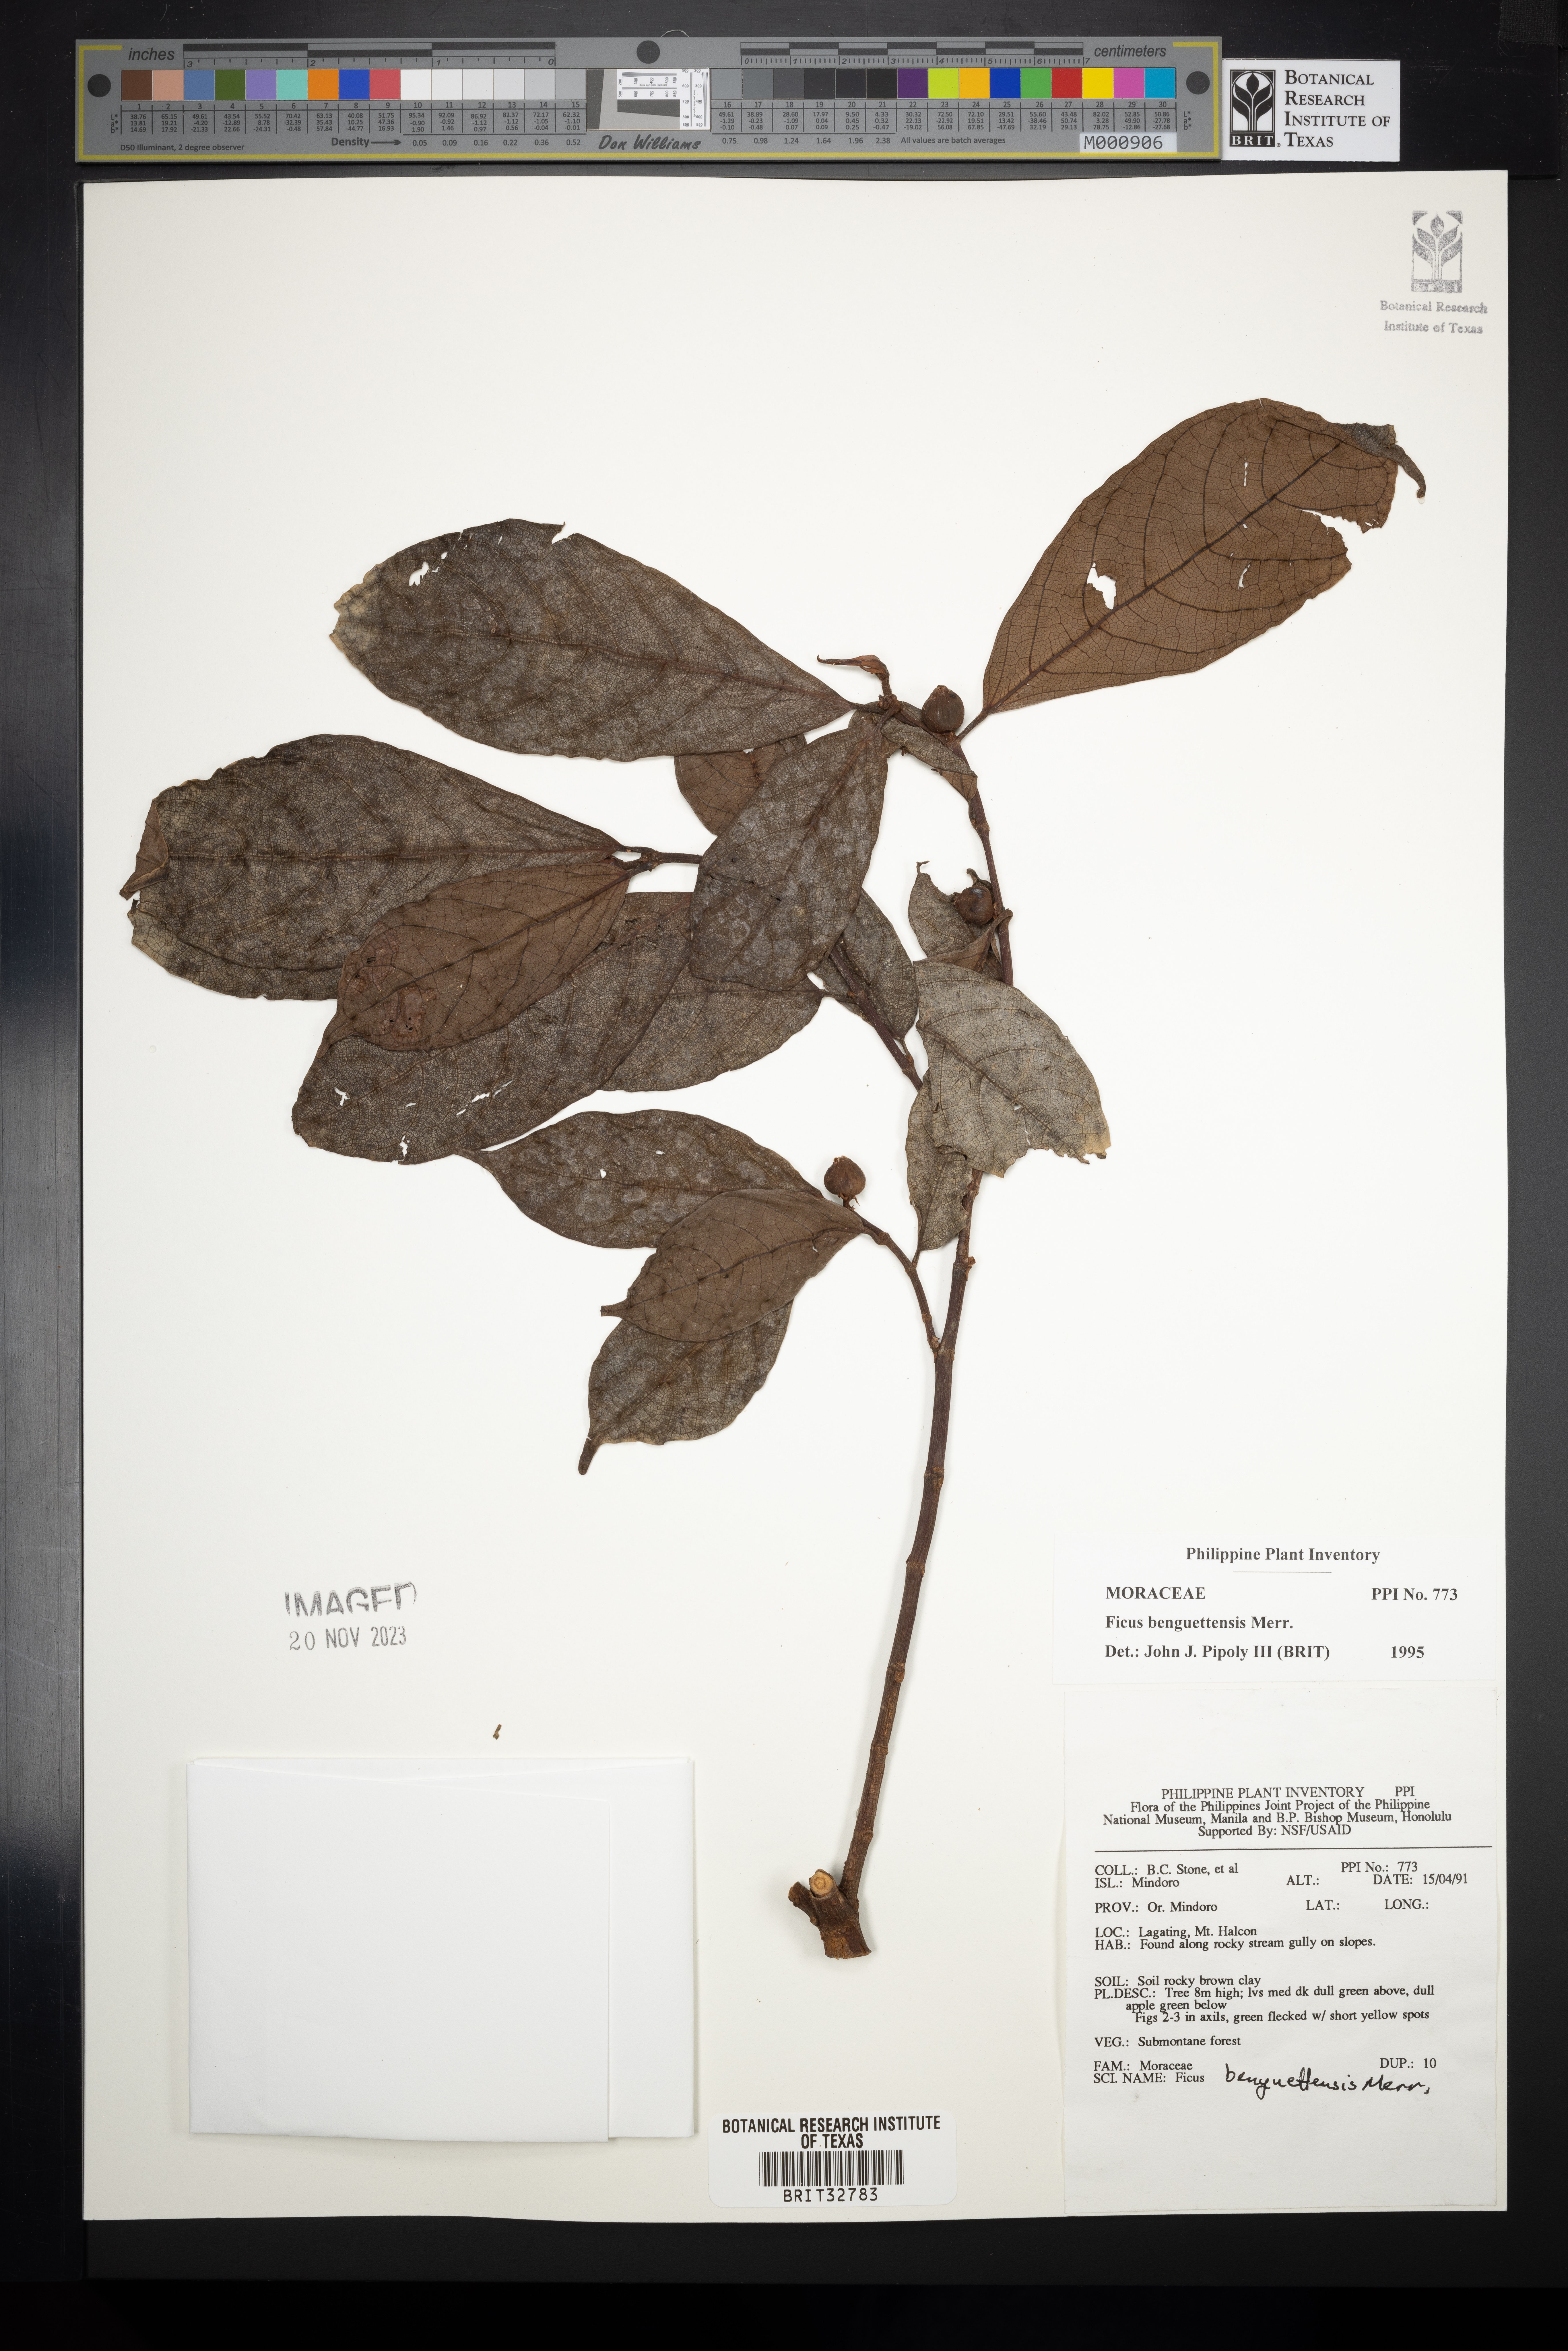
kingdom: Plantae
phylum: Tracheophyta
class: Magnoliopsida
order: Rosales
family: Moraceae
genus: Ficus
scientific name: Ficus benguetensis
